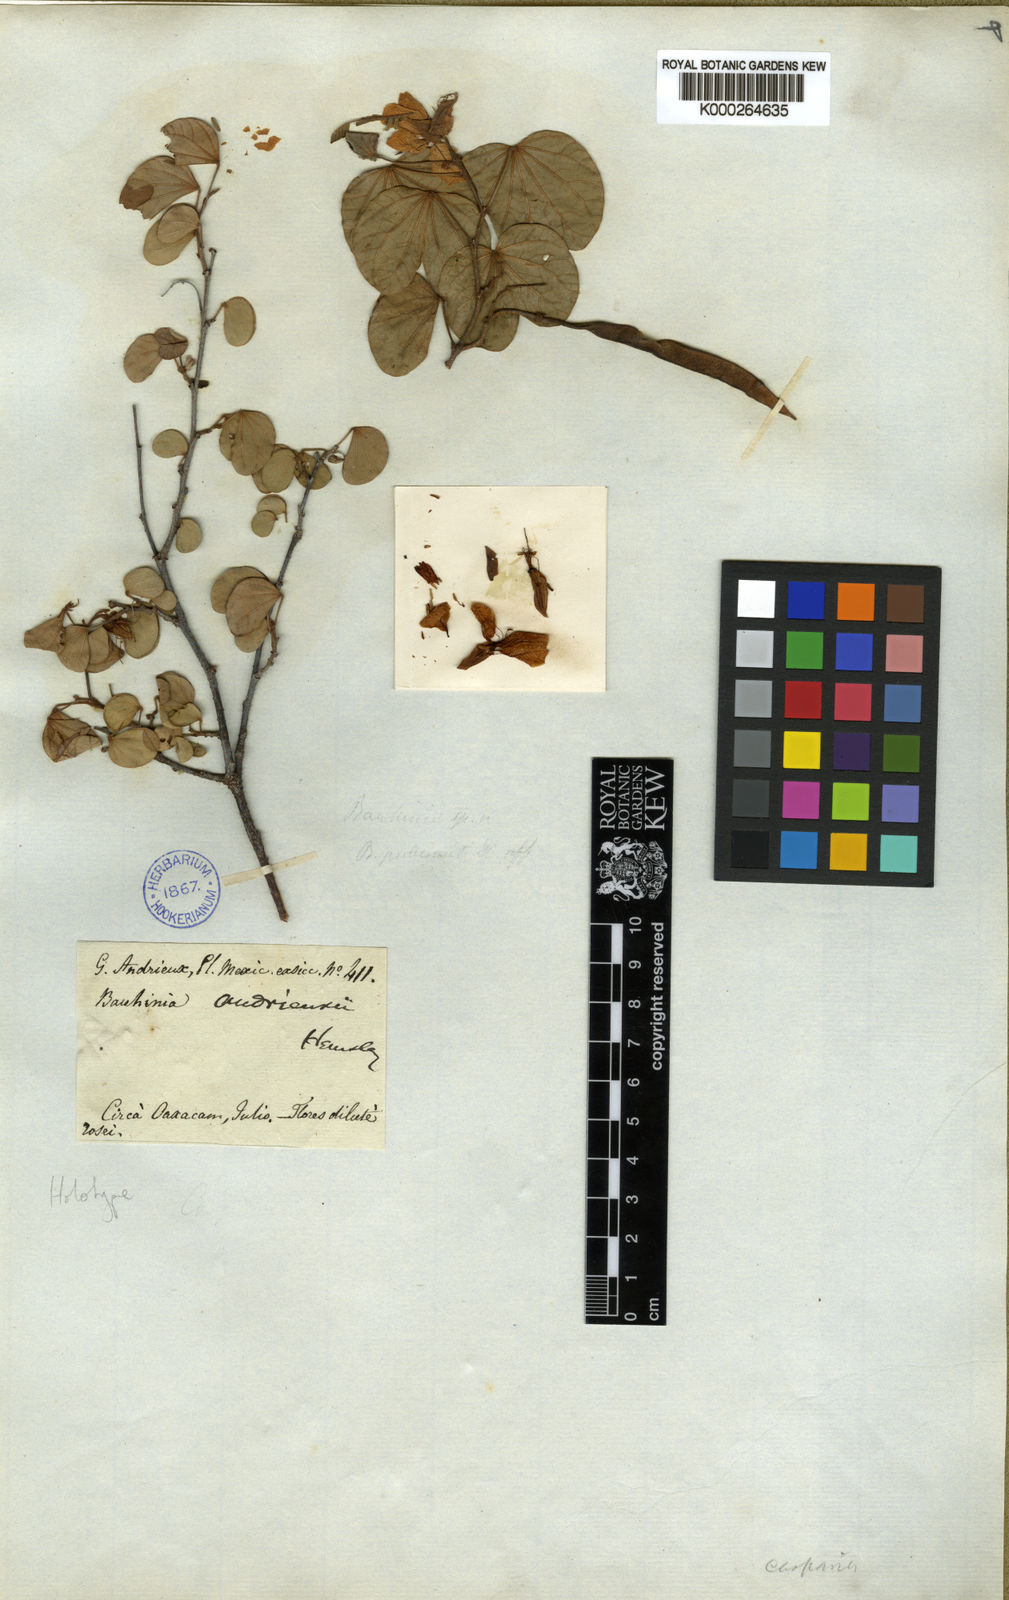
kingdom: Plantae
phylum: Tracheophyta
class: Magnoliopsida
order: Fabales
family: Fabaceae
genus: Bauhinia
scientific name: Bauhinia andrieuxii
